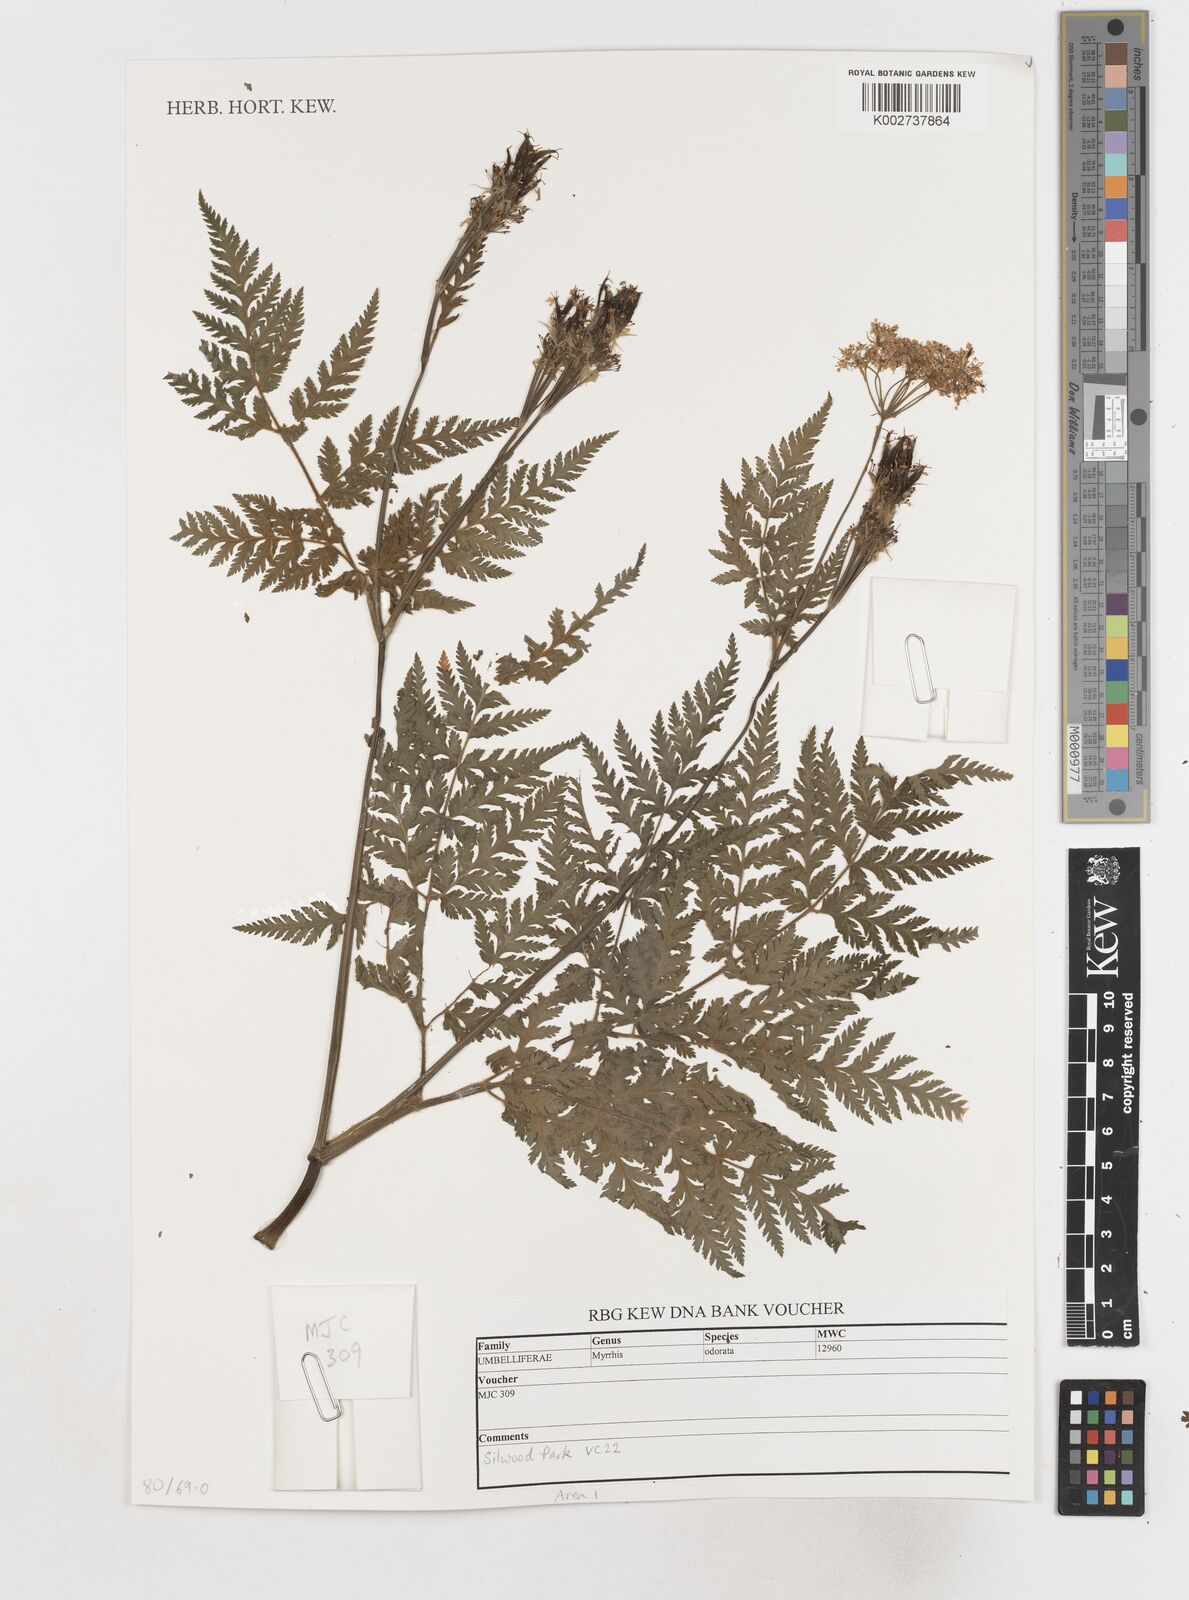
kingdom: Plantae
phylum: Tracheophyta
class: Magnoliopsida
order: Apiales
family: Apiaceae
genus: Myrrhis
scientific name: Myrrhis odorata
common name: Sweet cicely
